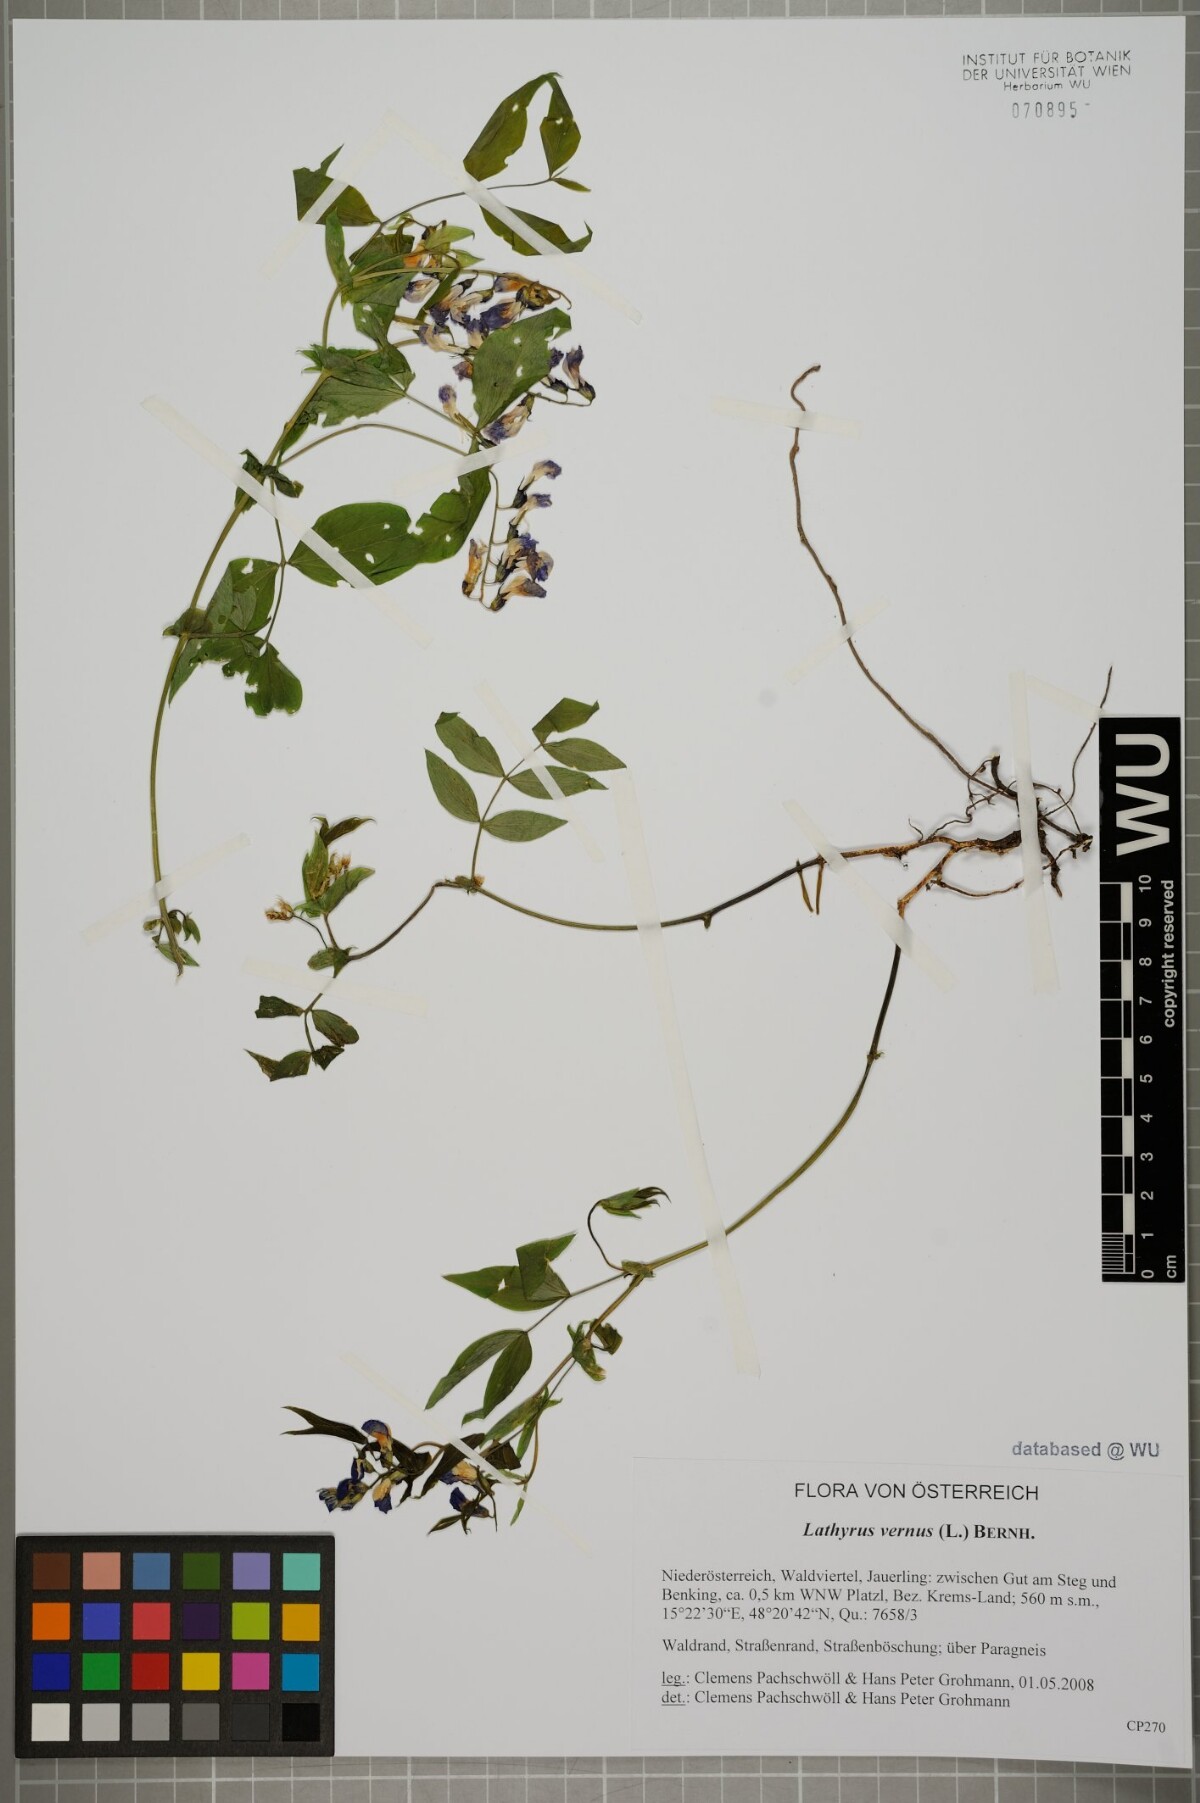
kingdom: Plantae
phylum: Tracheophyta
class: Magnoliopsida
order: Fabales
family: Fabaceae
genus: Lathyrus
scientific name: Lathyrus vernus
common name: Spring pea
